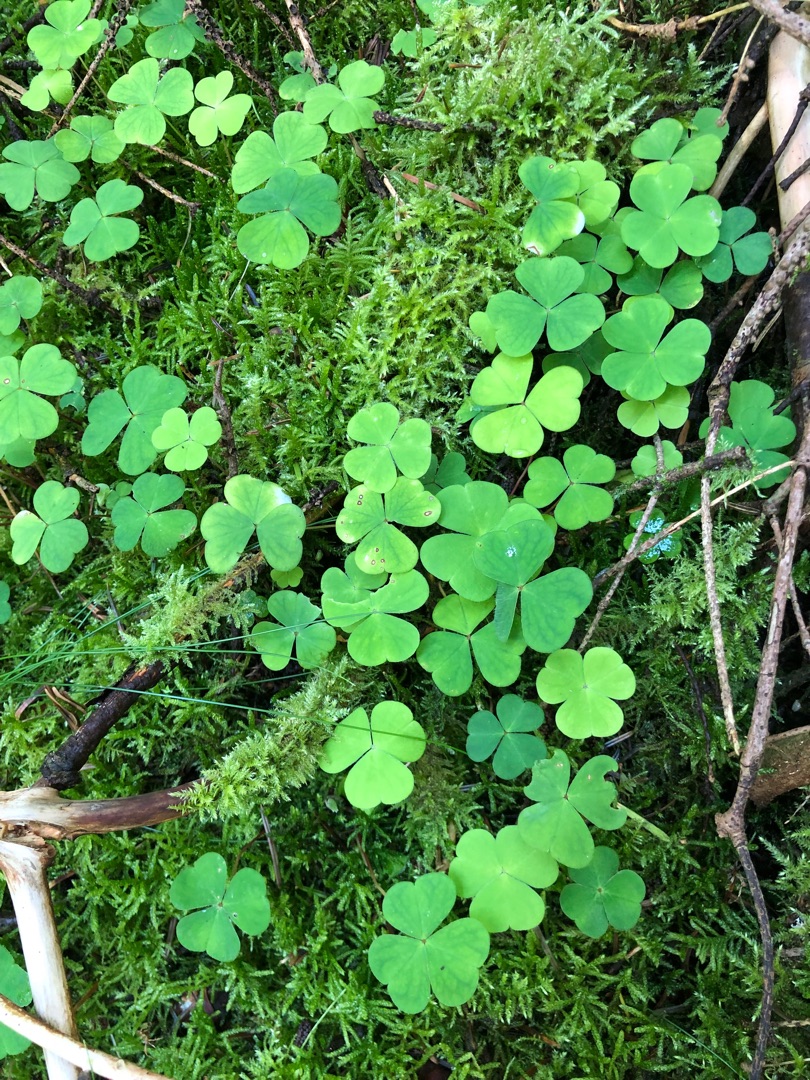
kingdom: Plantae
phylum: Tracheophyta
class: Magnoliopsida
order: Oxalidales
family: Oxalidaceae
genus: Oxalis
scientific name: Oxalis acetosella
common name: Skovsyre
